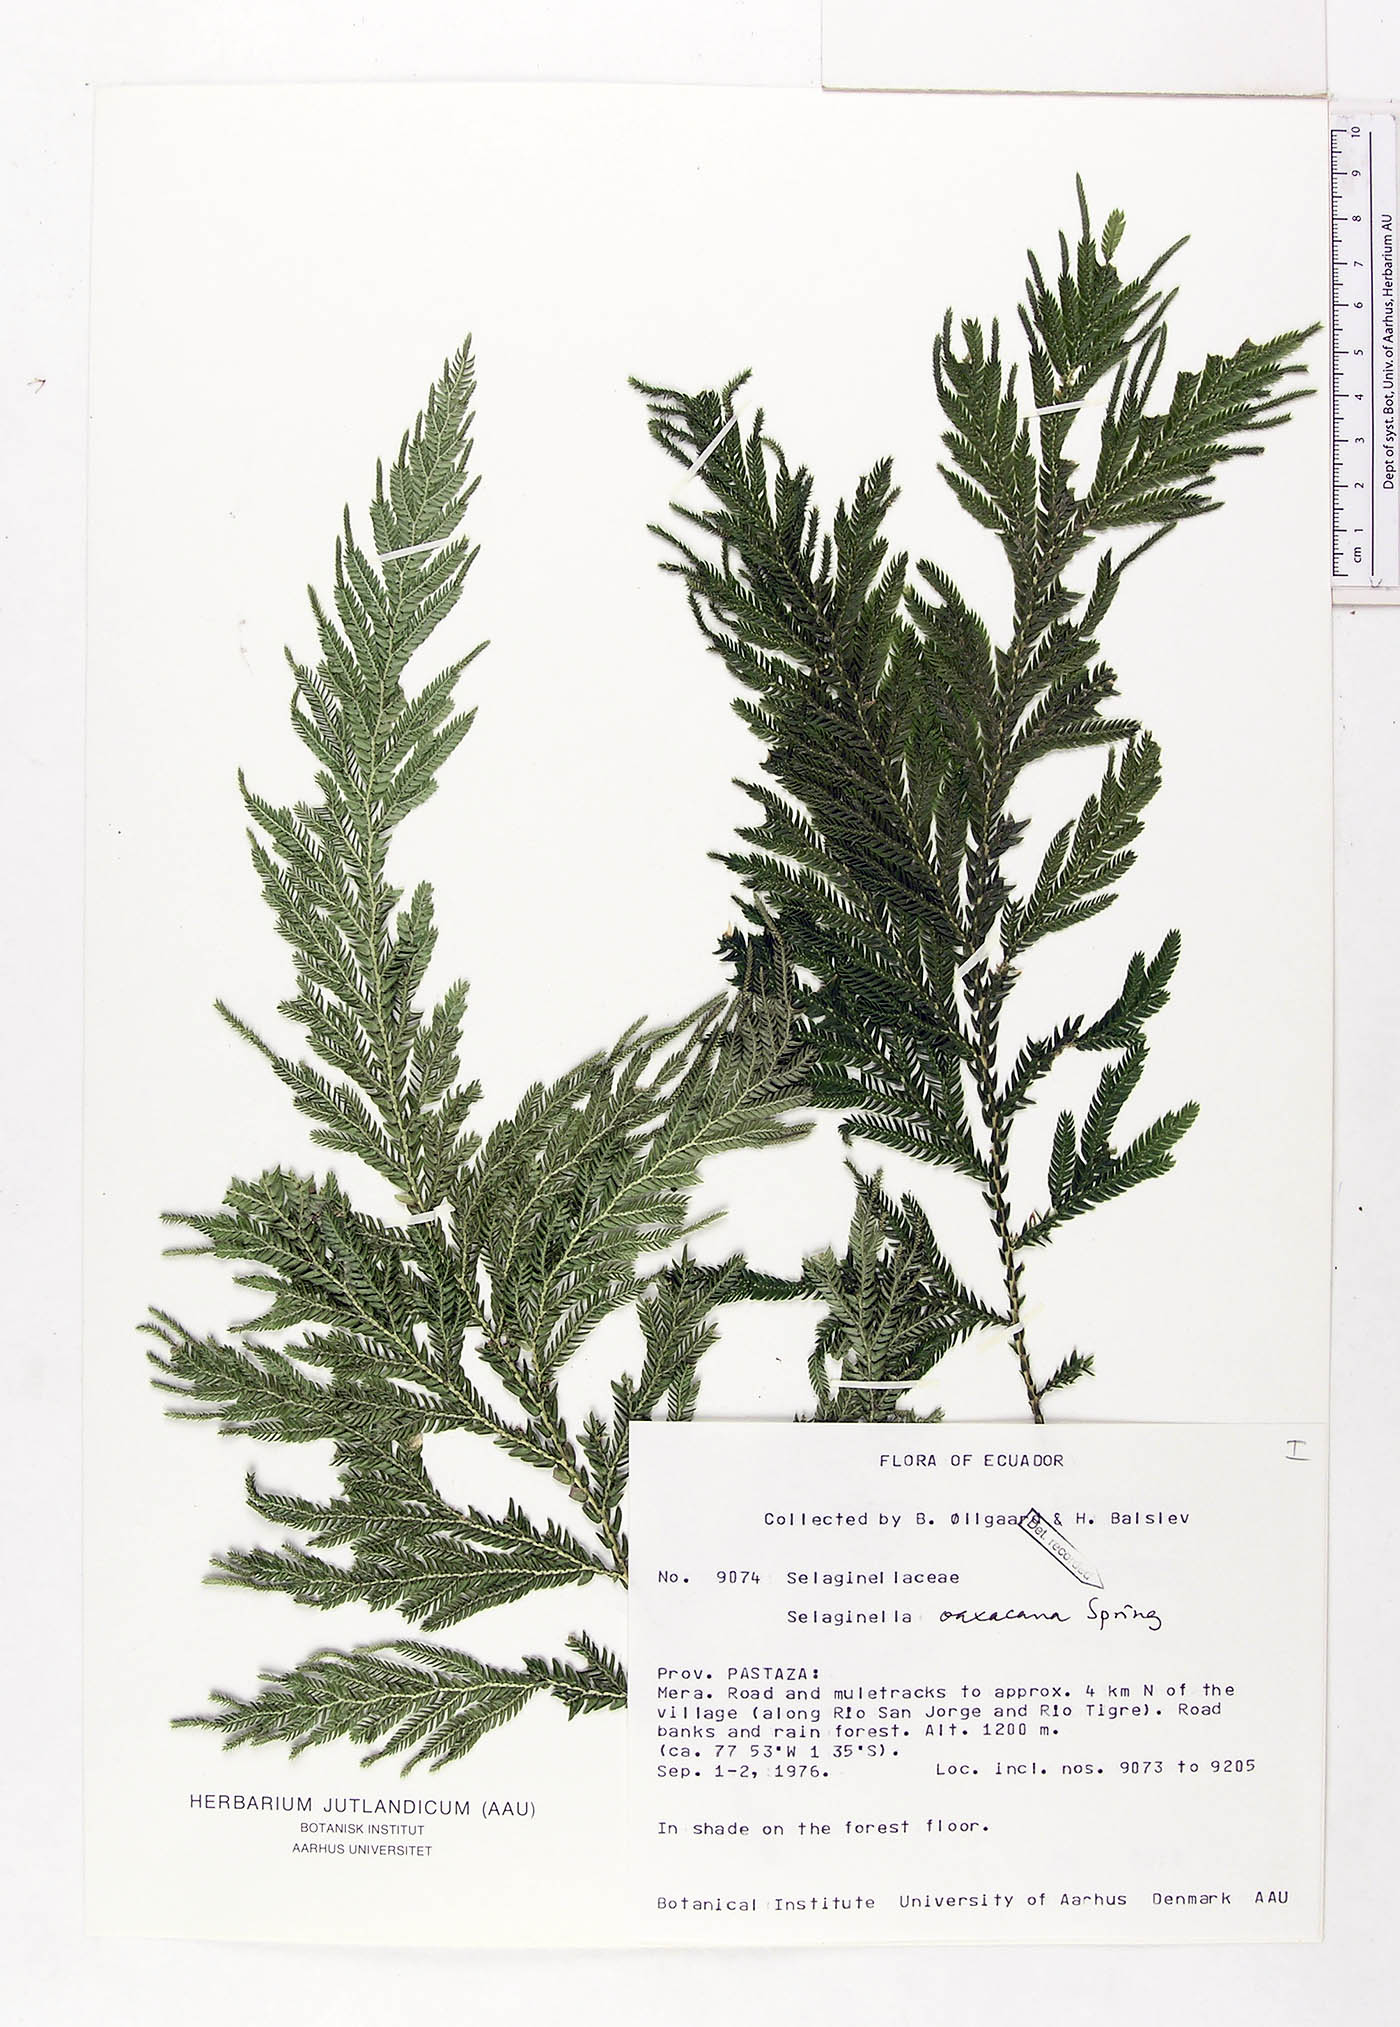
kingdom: Plantae
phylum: Tracheophyta
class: Lycopodiopsida
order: Selaginellales
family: Selaginellaceae
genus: Selaginella
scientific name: Selaginella oaxacana
